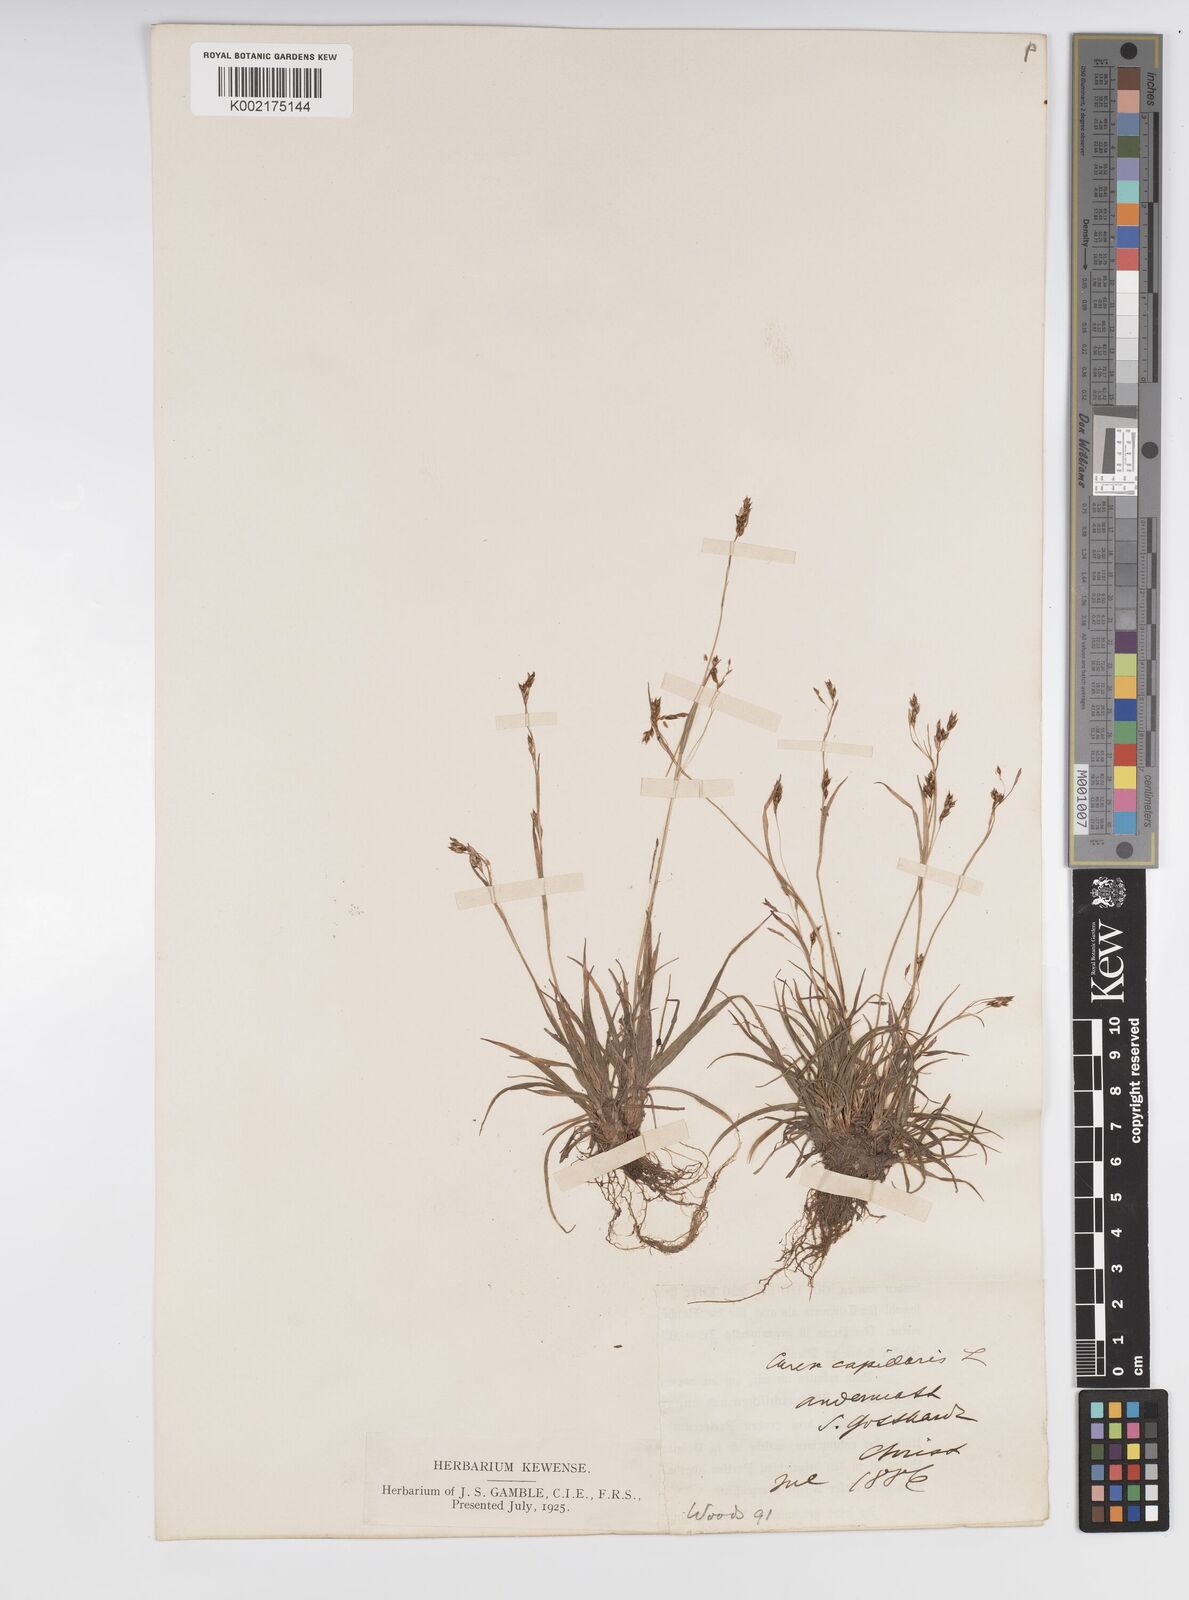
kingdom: Plantae
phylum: Tracheophyta
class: Liliopsida
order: Poales
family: Cyperaceae
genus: Carex
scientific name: Carex capillaris
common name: Hair sedge
